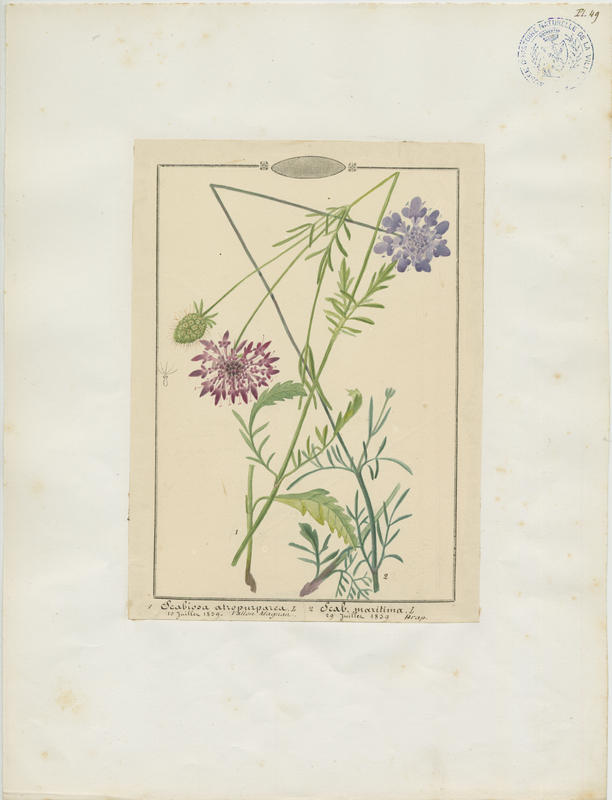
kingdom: Plantae
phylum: Tracheophyta
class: Magnoliopsida
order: Dipsacales
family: Caprifoliaceae
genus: Sixalix
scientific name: Sixalix atropurpurea
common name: Sweet scabious
